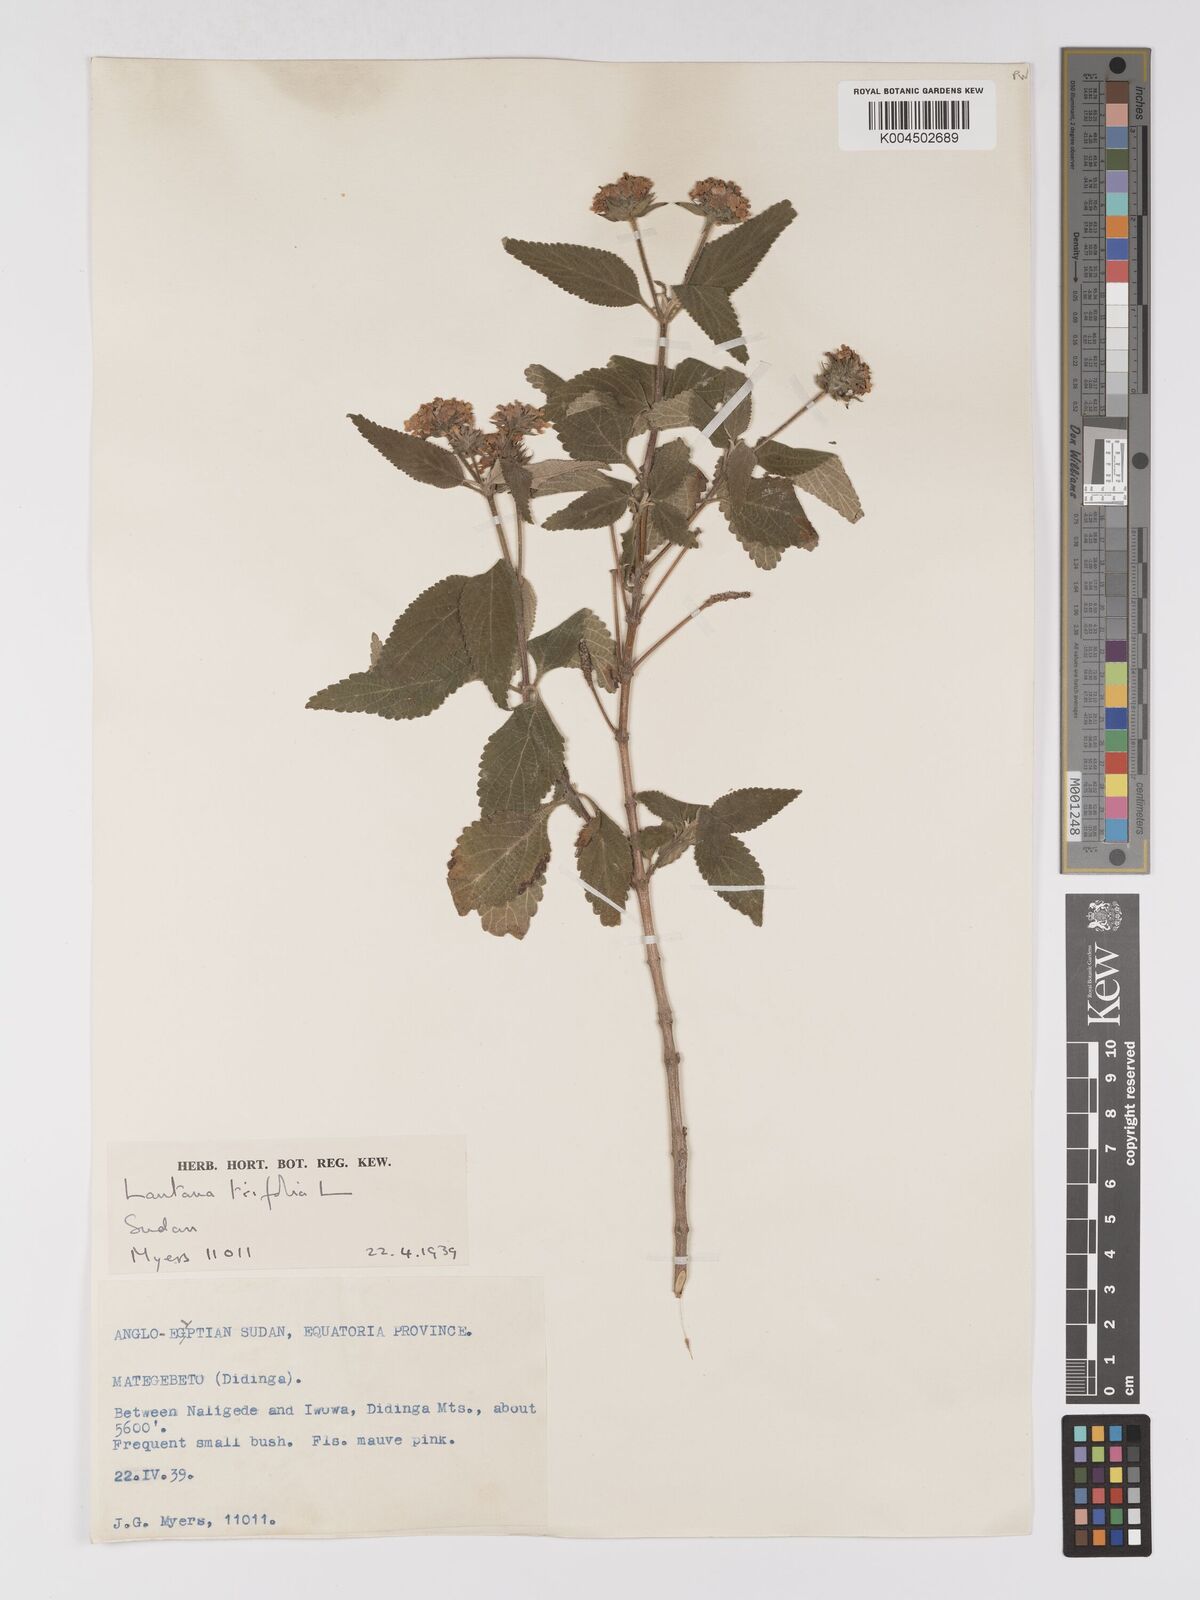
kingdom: Plantae
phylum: Tracheophyta
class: Magnoliopsida
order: Lamiales
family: Verbenaceae
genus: Lantana
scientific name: Lantana trifolia
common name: Sweet-sage
